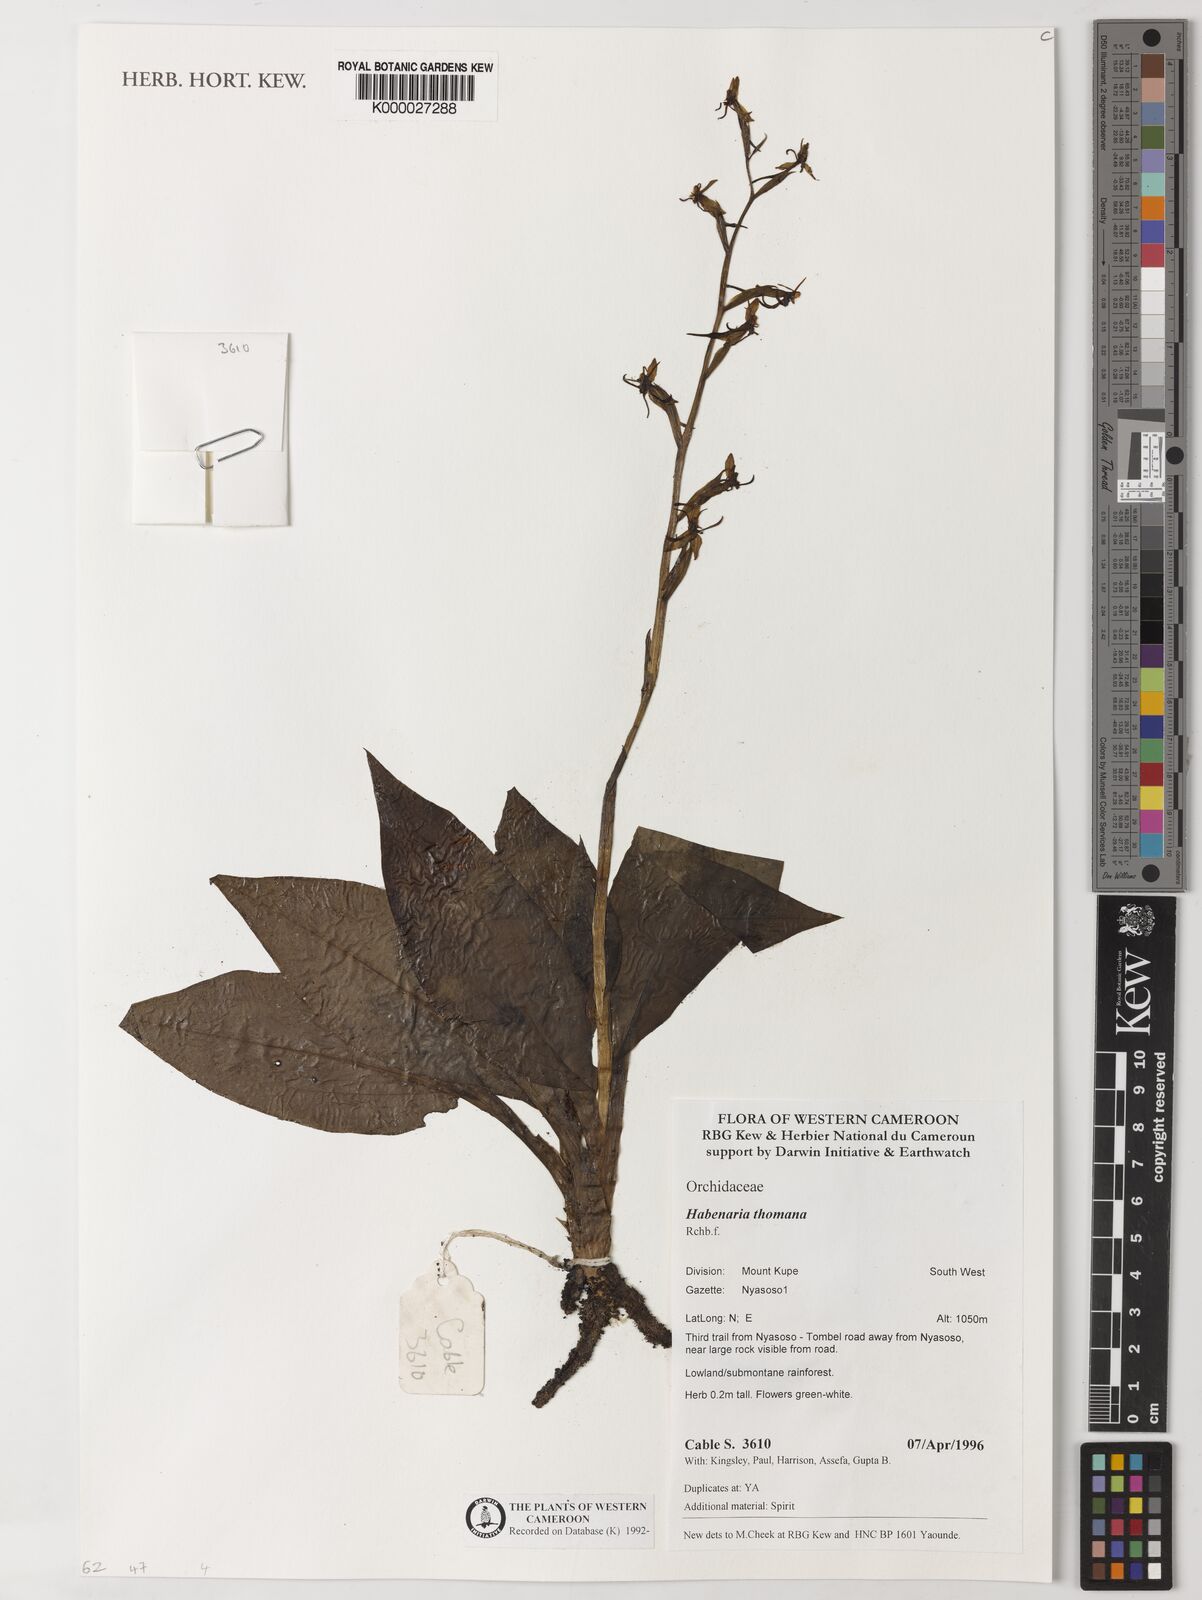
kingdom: Plantae
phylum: Tracheophyta
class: Liliopsida
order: Asparagales
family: Orchidaceae
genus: Habenaria
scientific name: Habenaria thomana
